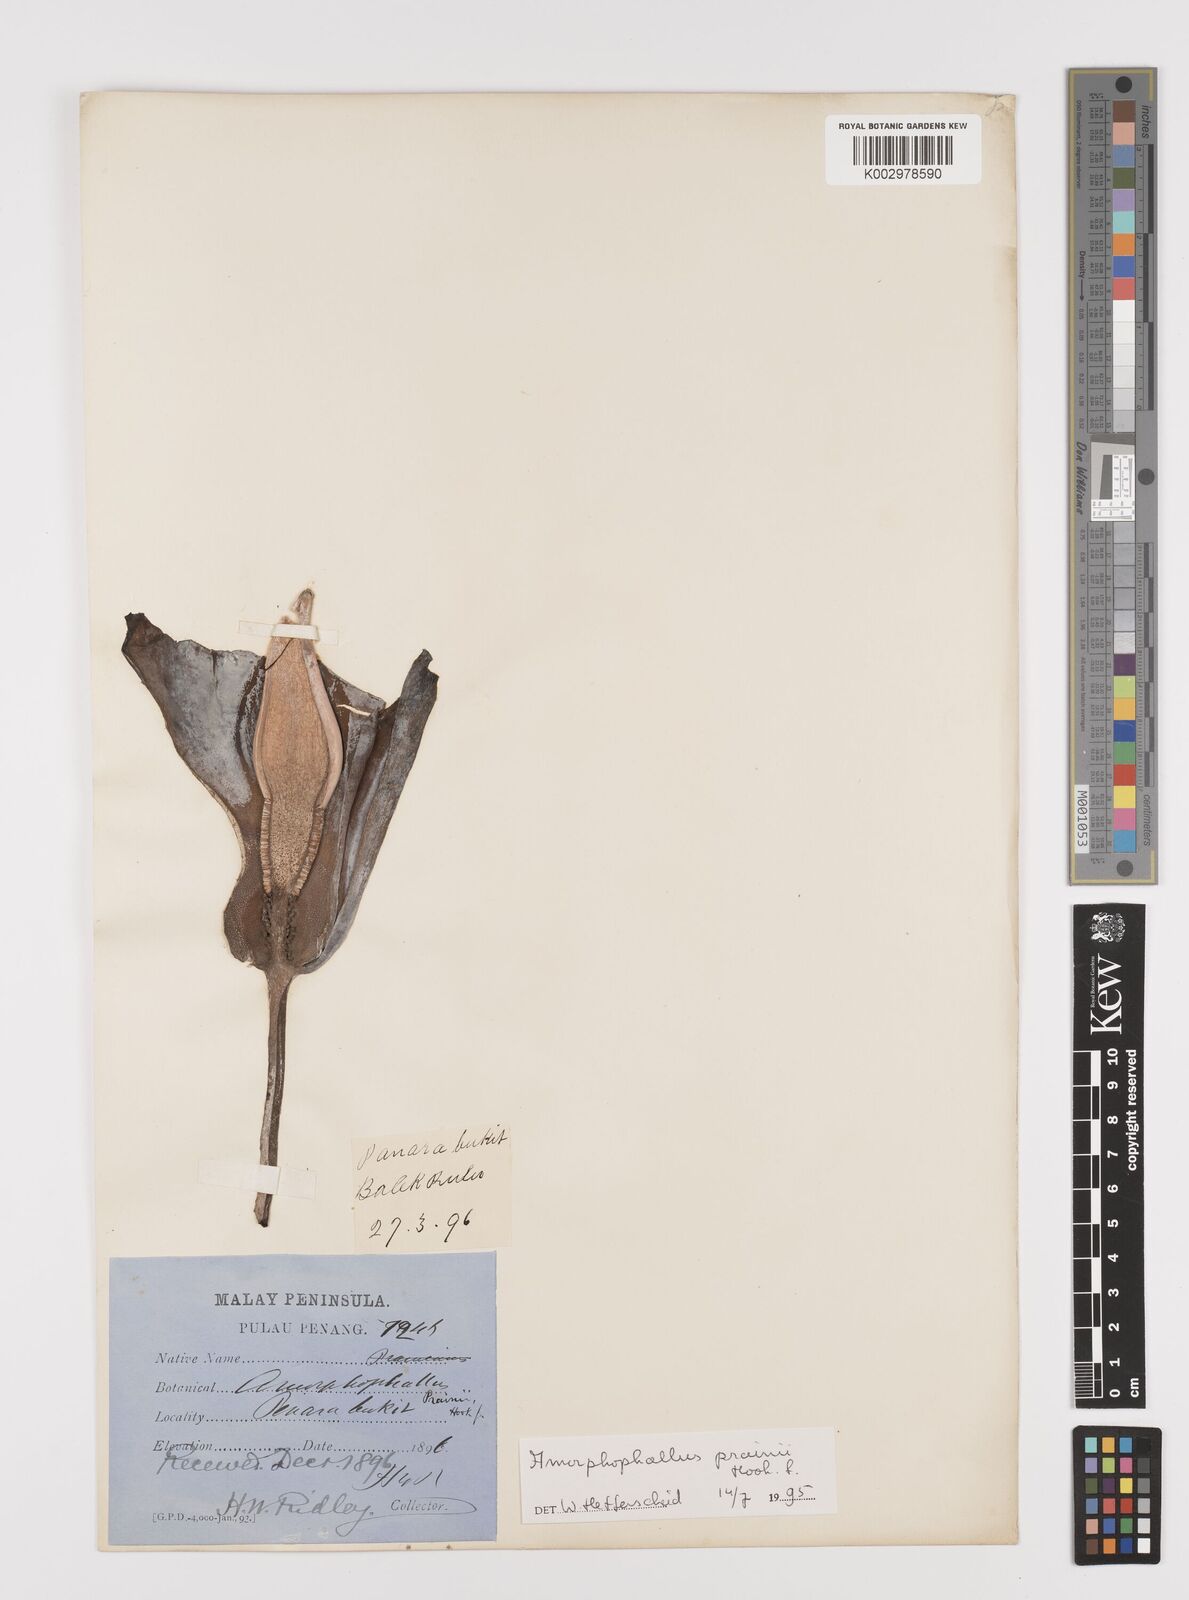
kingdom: Plantae
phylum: Tracheophyta
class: Liliopsida
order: Alismatales
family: Araceae
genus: Amorphophallus
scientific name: Amorphophallus prainii
